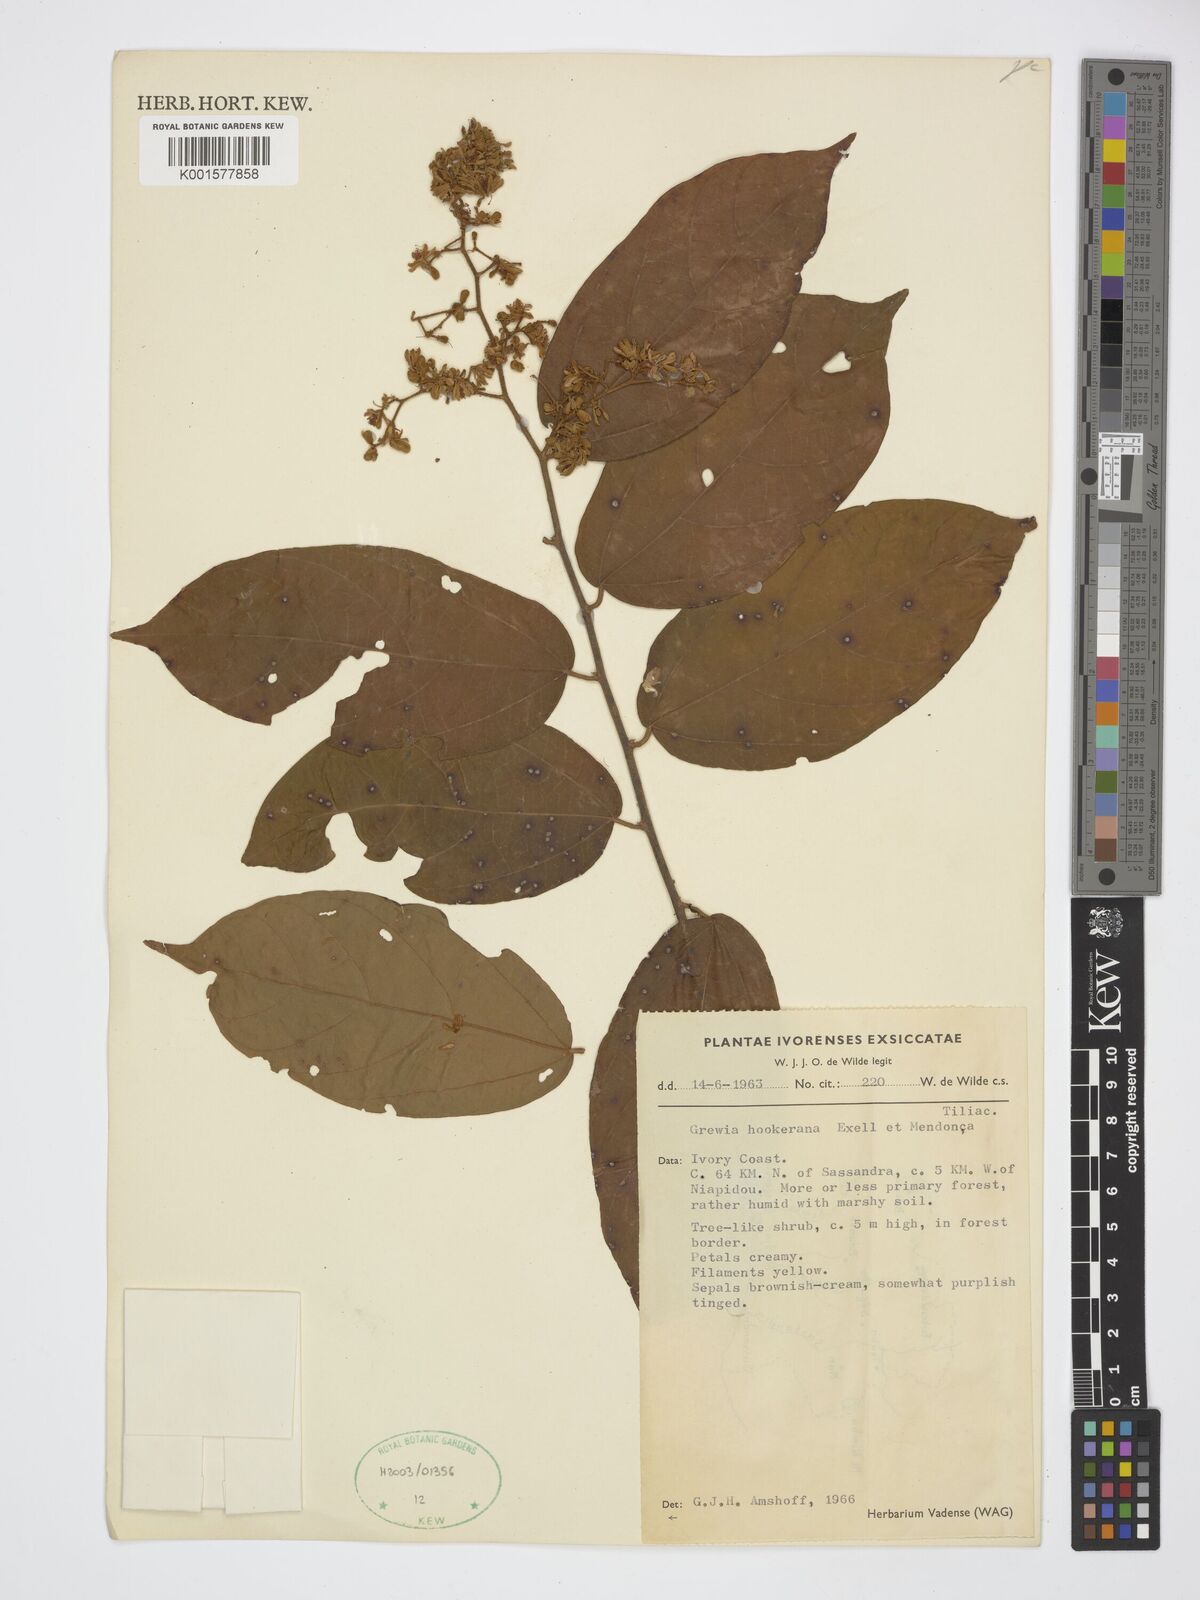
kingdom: Plantae
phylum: Tracheophyta
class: Magnoliopsida
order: Malvales
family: Malvaceae
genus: Microcos
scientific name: Microcos africana
